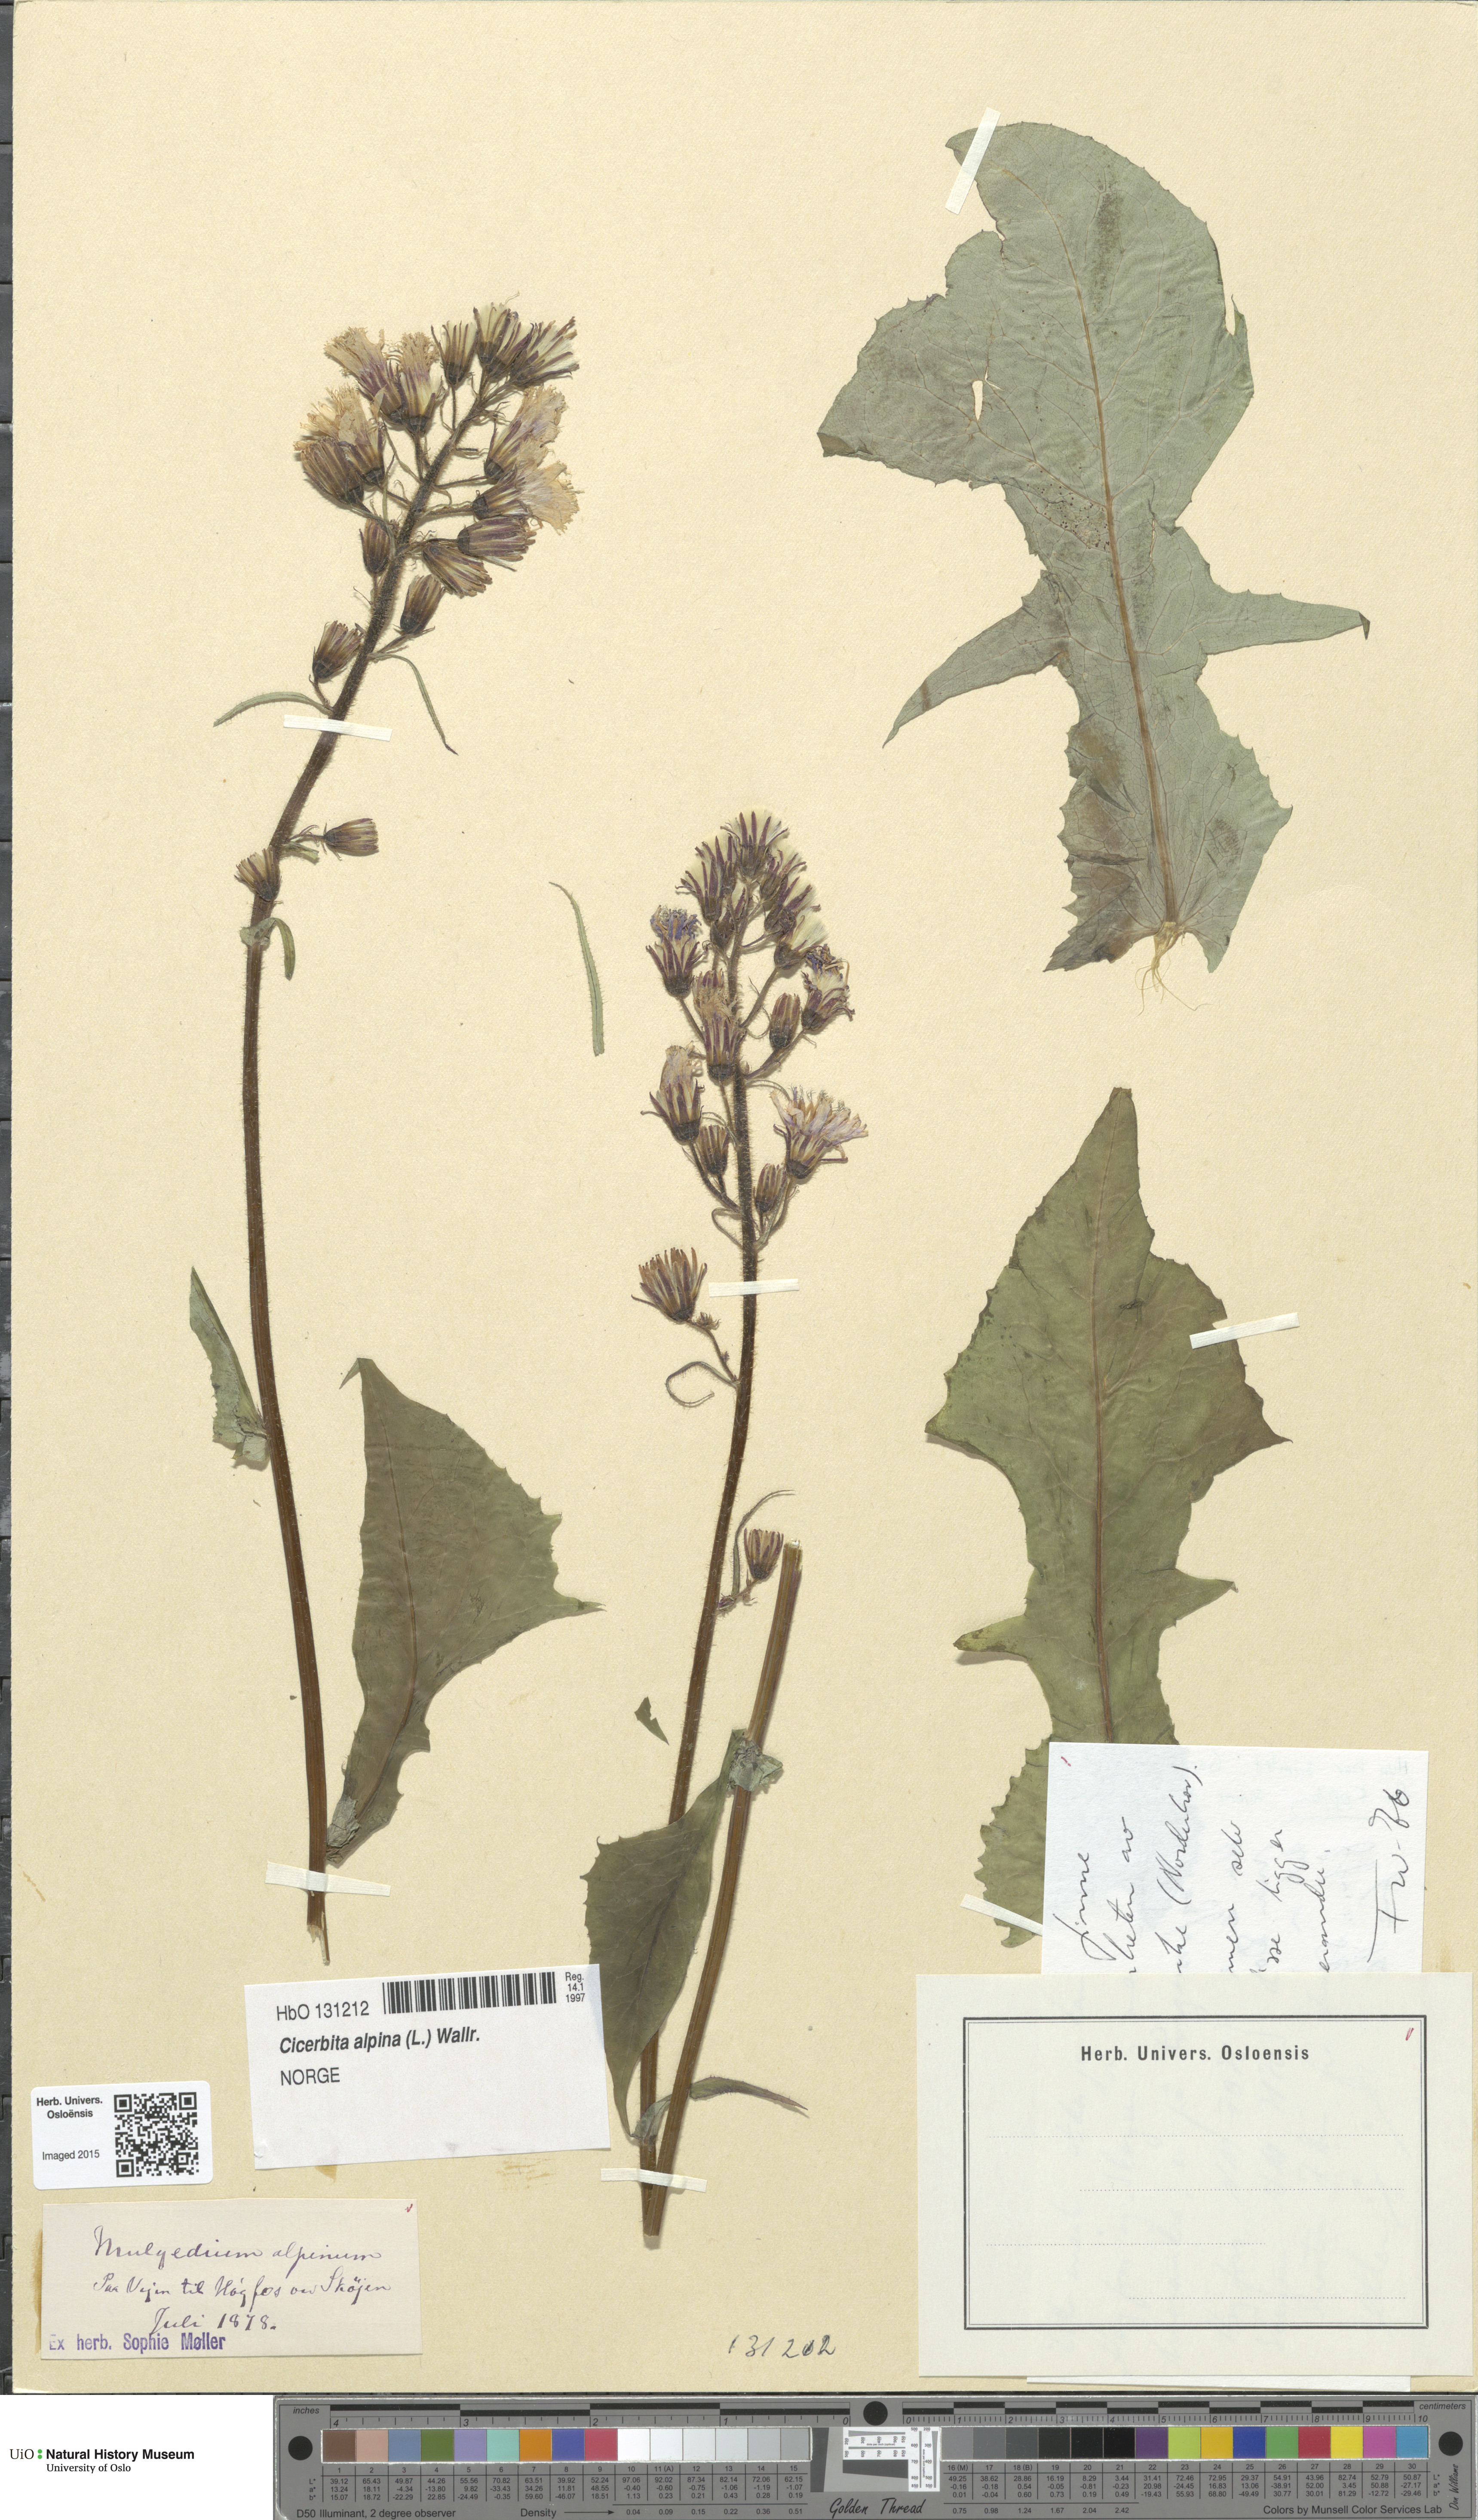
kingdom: Plantae
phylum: Tracheophyta
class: Magnoliopsida
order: Asterales
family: Asteraceae
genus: Cicerbita
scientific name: Cicerbita alpina
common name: Alpine blue-sow-thistle
